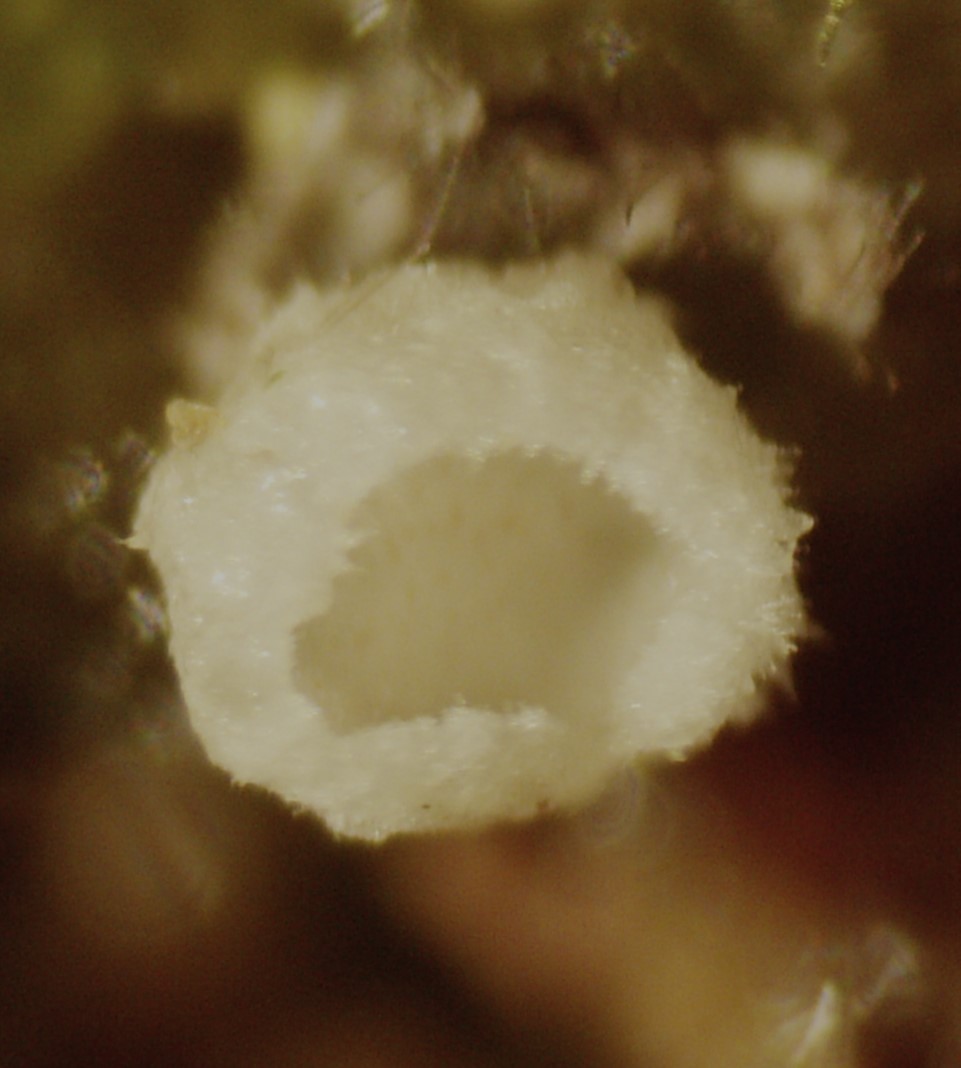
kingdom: Fungi
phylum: Basidiomycota
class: Agaricomycetes
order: Agaricales
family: Chromocyphellaceae
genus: Chromocyphella
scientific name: Chromocyphella muscicola
